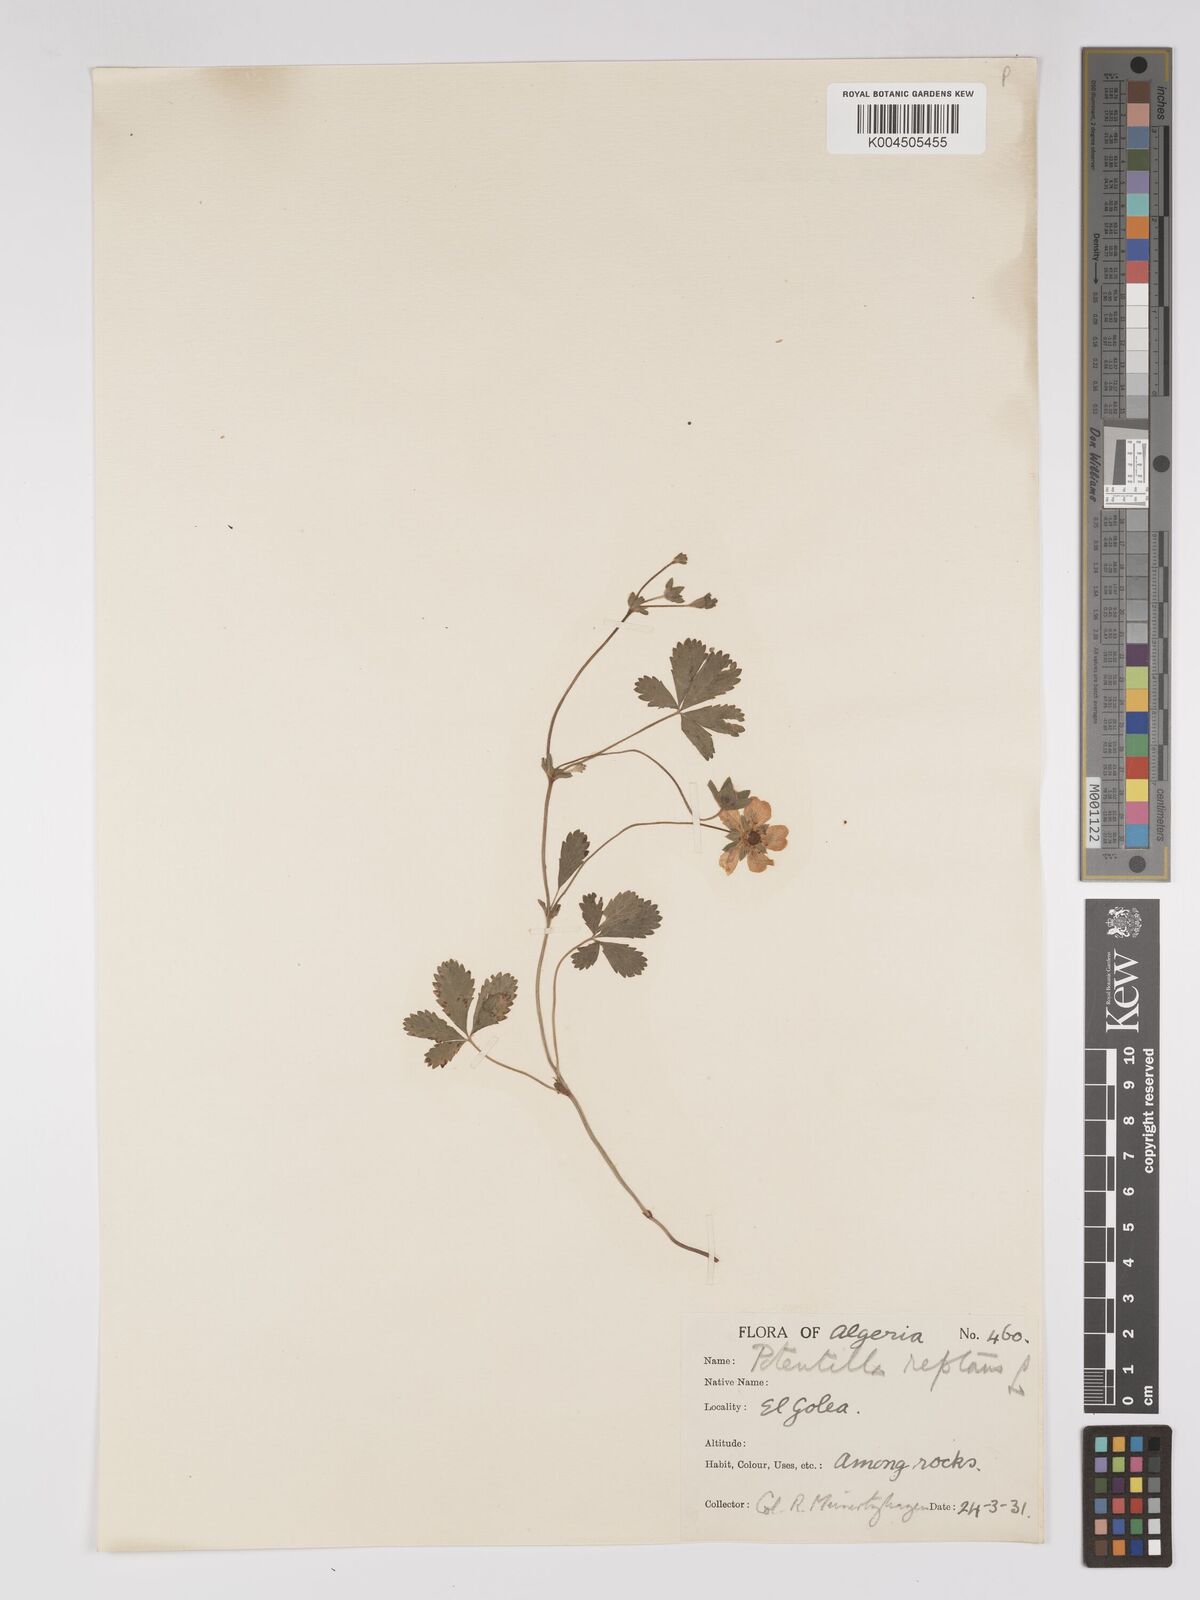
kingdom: Plantae
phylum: Tracheophyta
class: Magnoliopsida
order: Rosales
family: Rosaceae
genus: Potentilla
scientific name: Potentilla reptans
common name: Creeping cinquefoil
